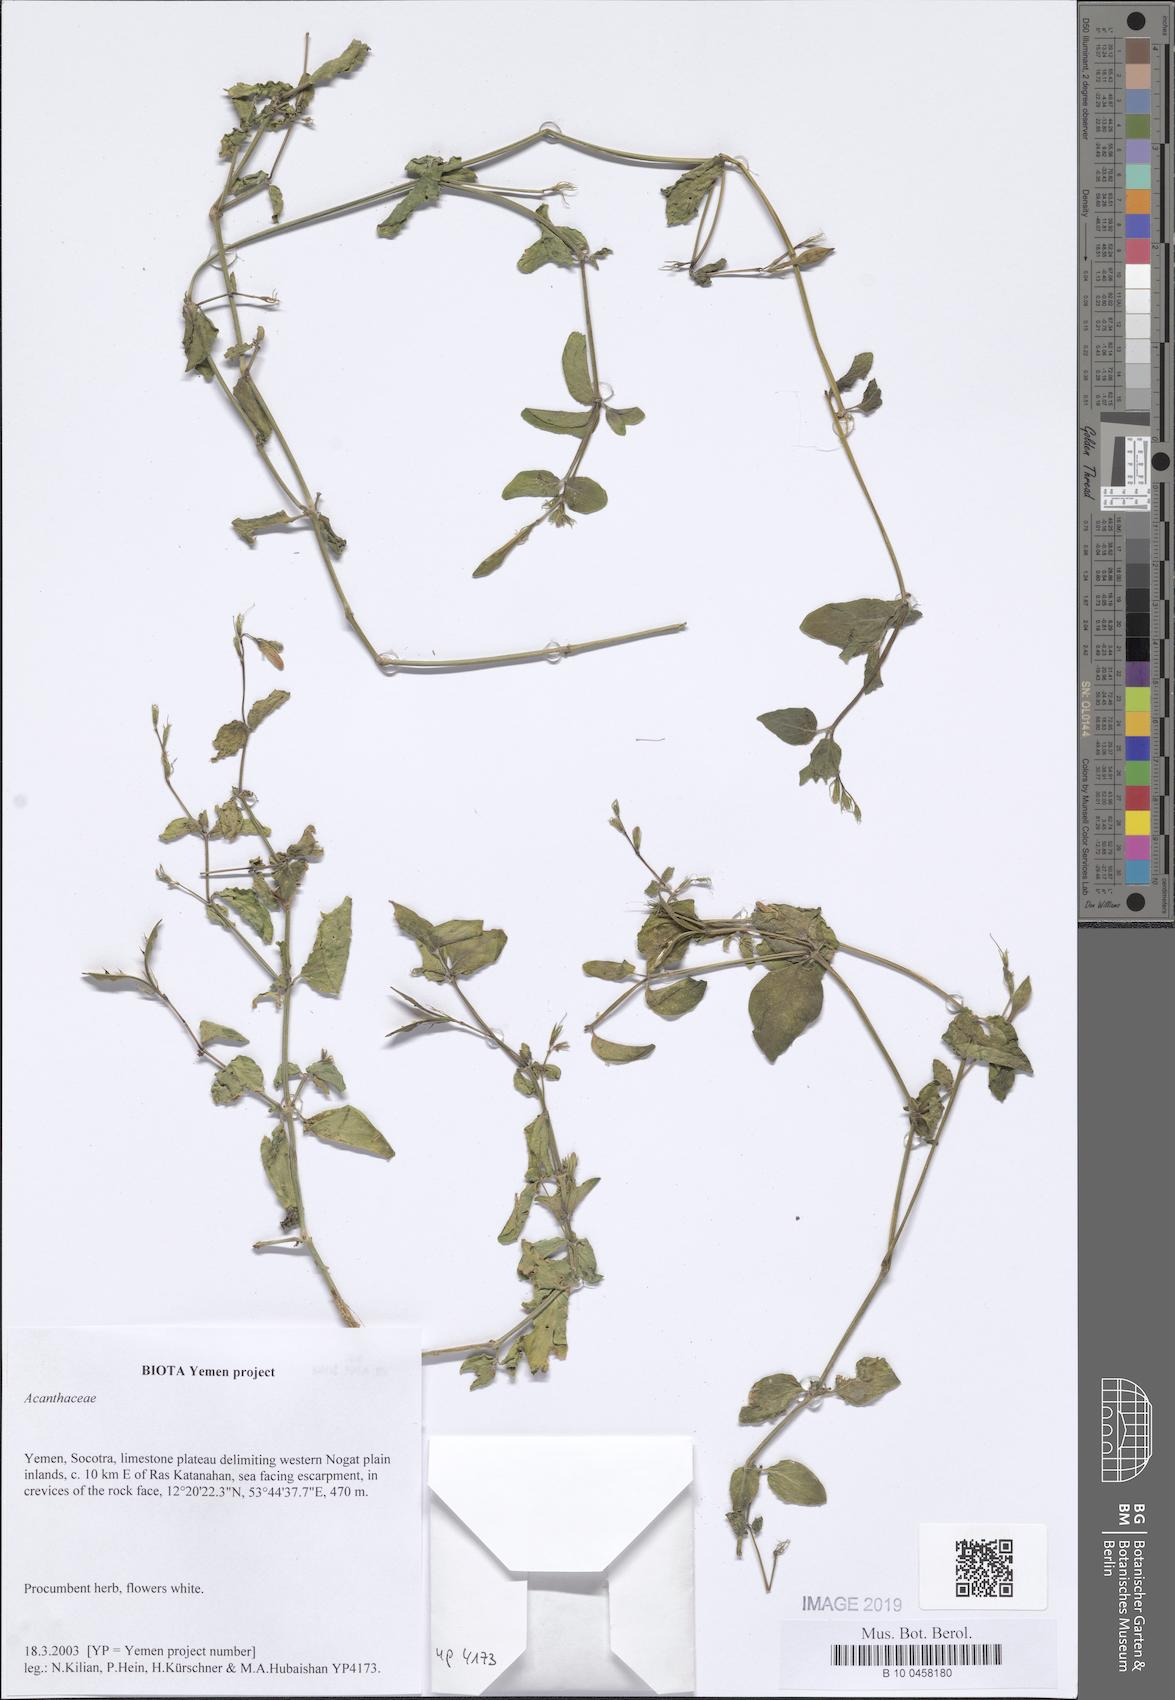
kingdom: Plantae
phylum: Tracheophyta
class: Magnoliopsida
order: Lamiales
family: Acanthaceae
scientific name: Acanthaceae
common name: Acanthaceae
